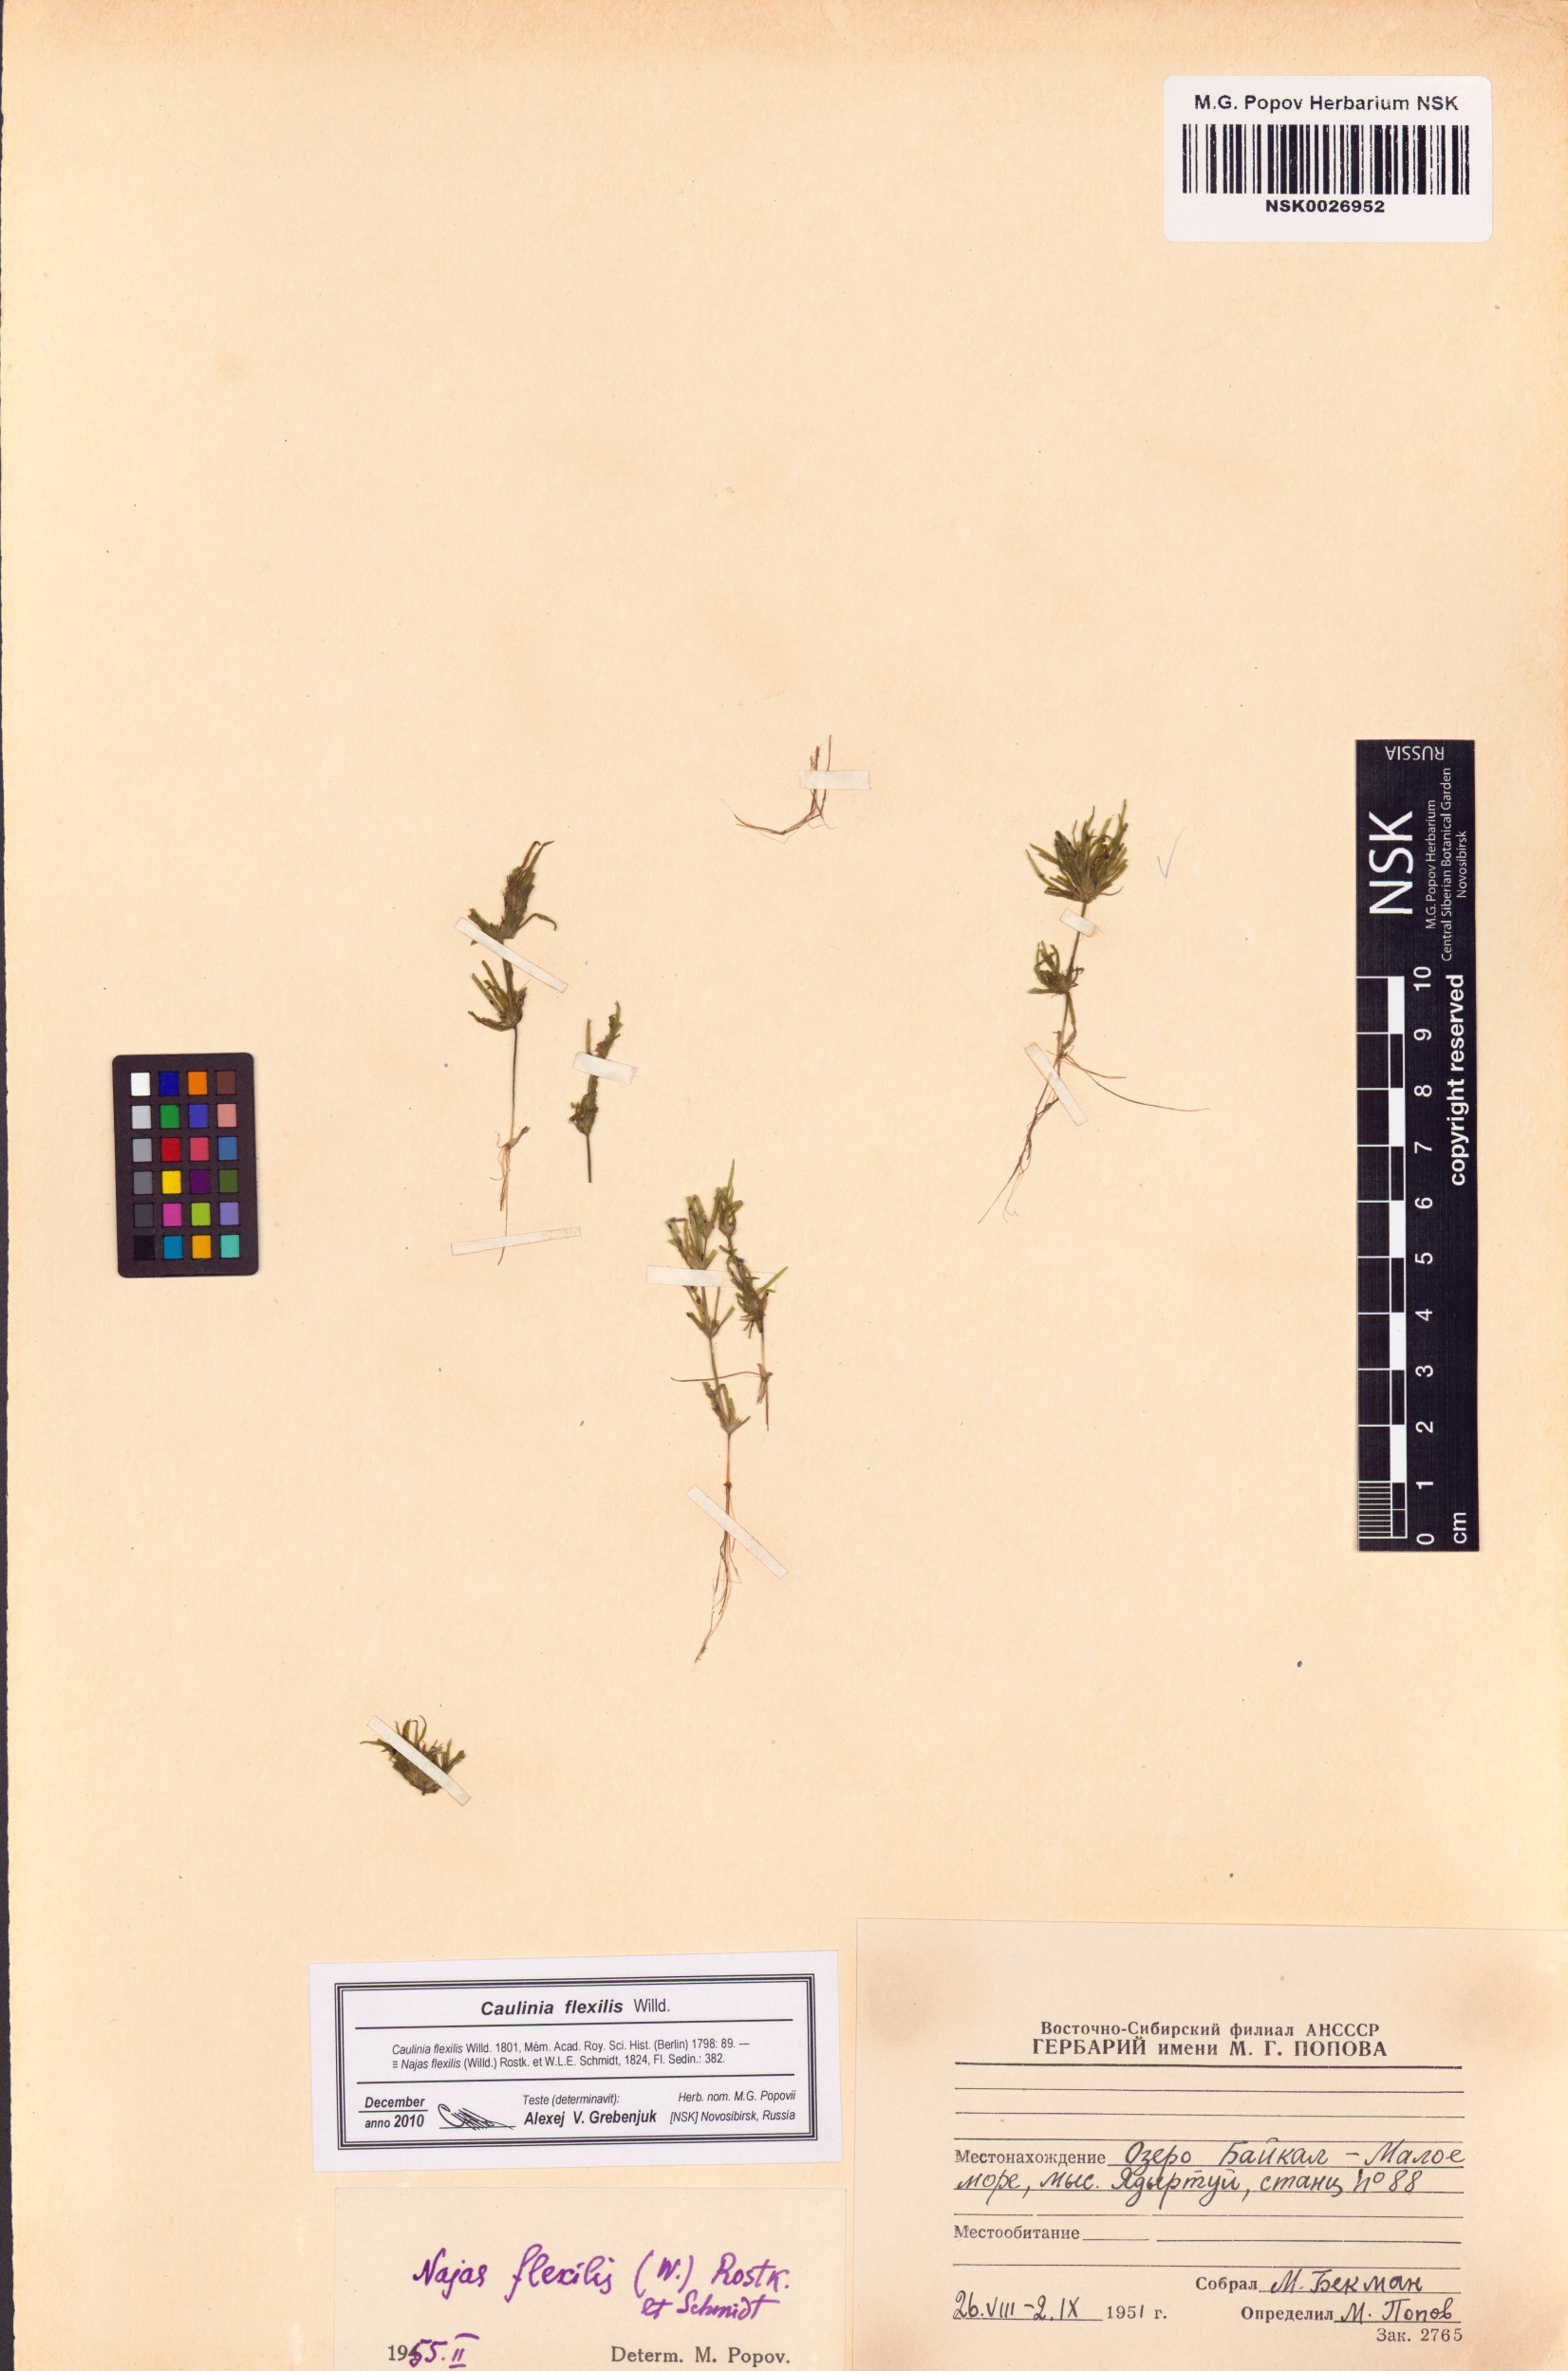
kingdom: Plantae
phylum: Tracheophyta
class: Liliopsida
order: Alismatales
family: Hydrocharitaceae
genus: Najas
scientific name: Najas flexilis
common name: Slender naiad
